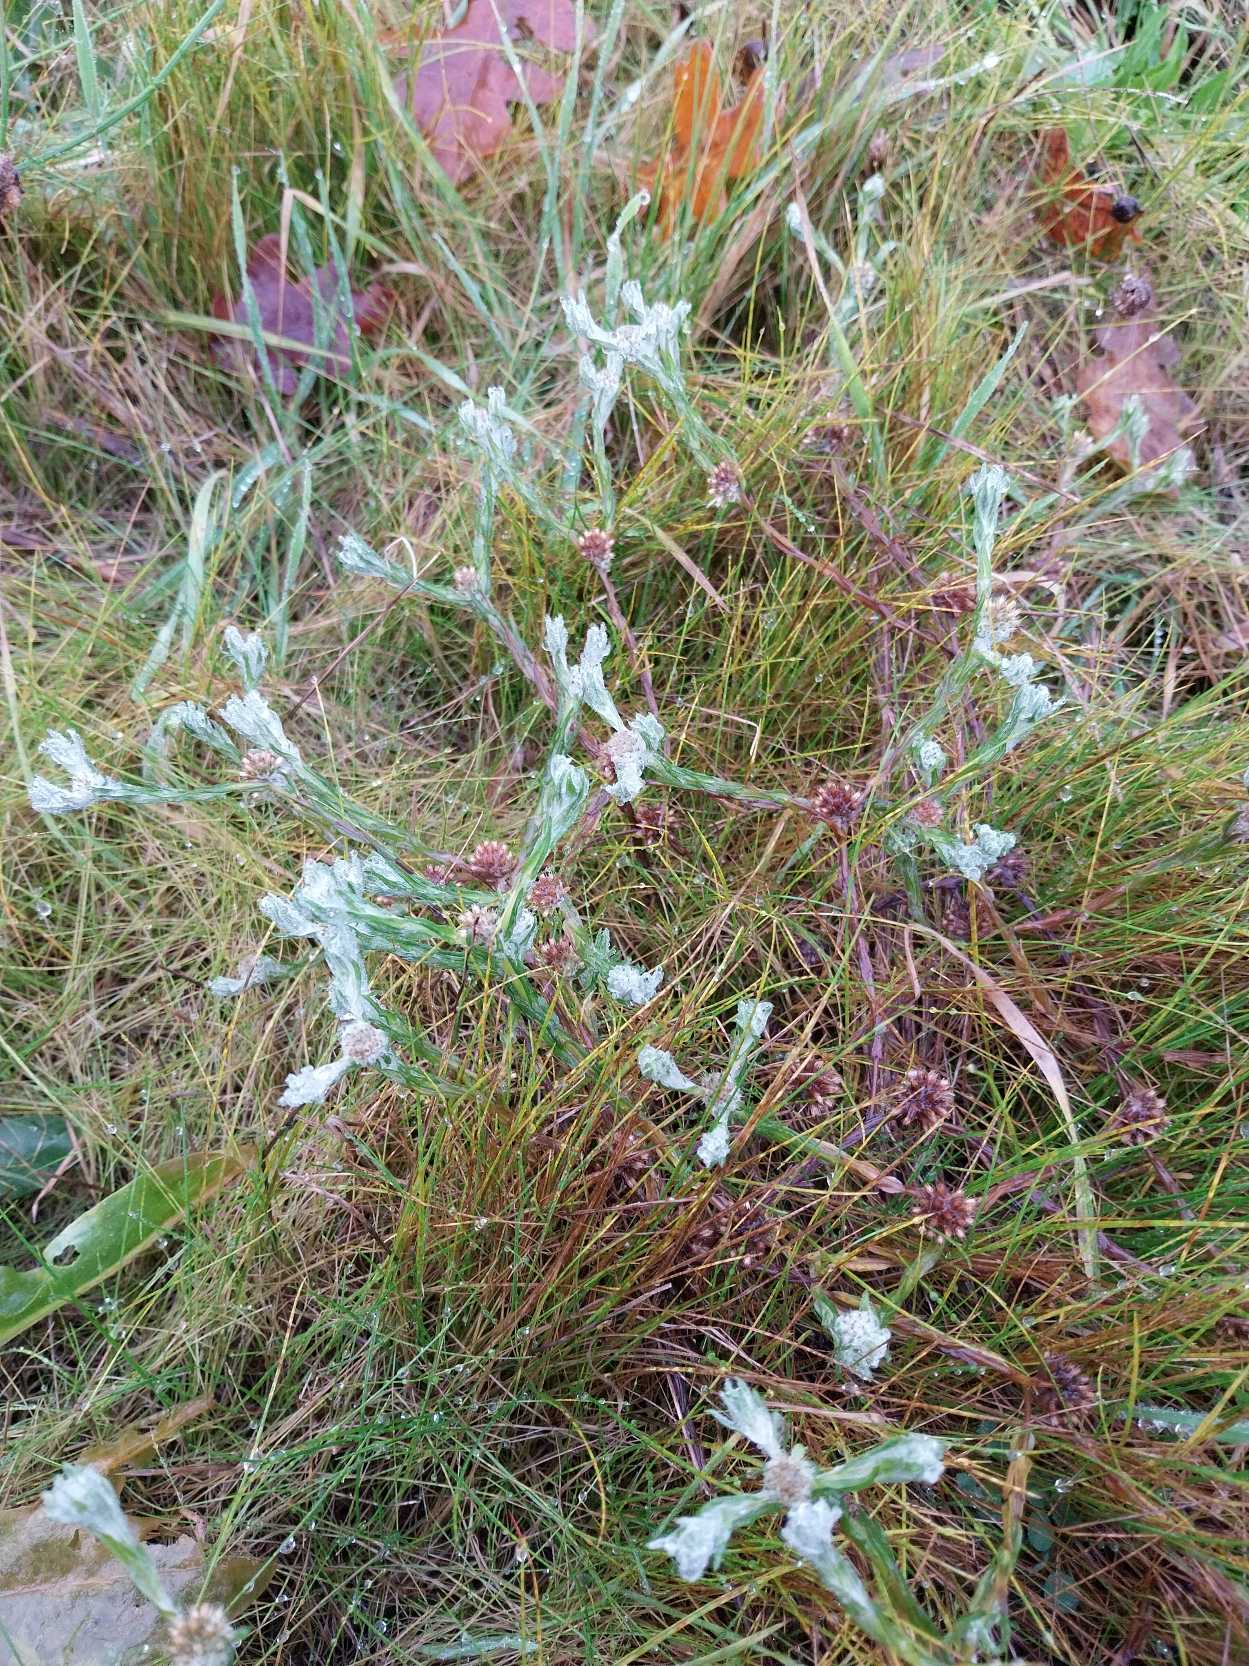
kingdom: Plantae
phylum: Tracheophyta
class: Magnoliopsida
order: Asterales
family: Asteraceae
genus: Filago
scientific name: Filago germanica
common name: Kugle-museurt
